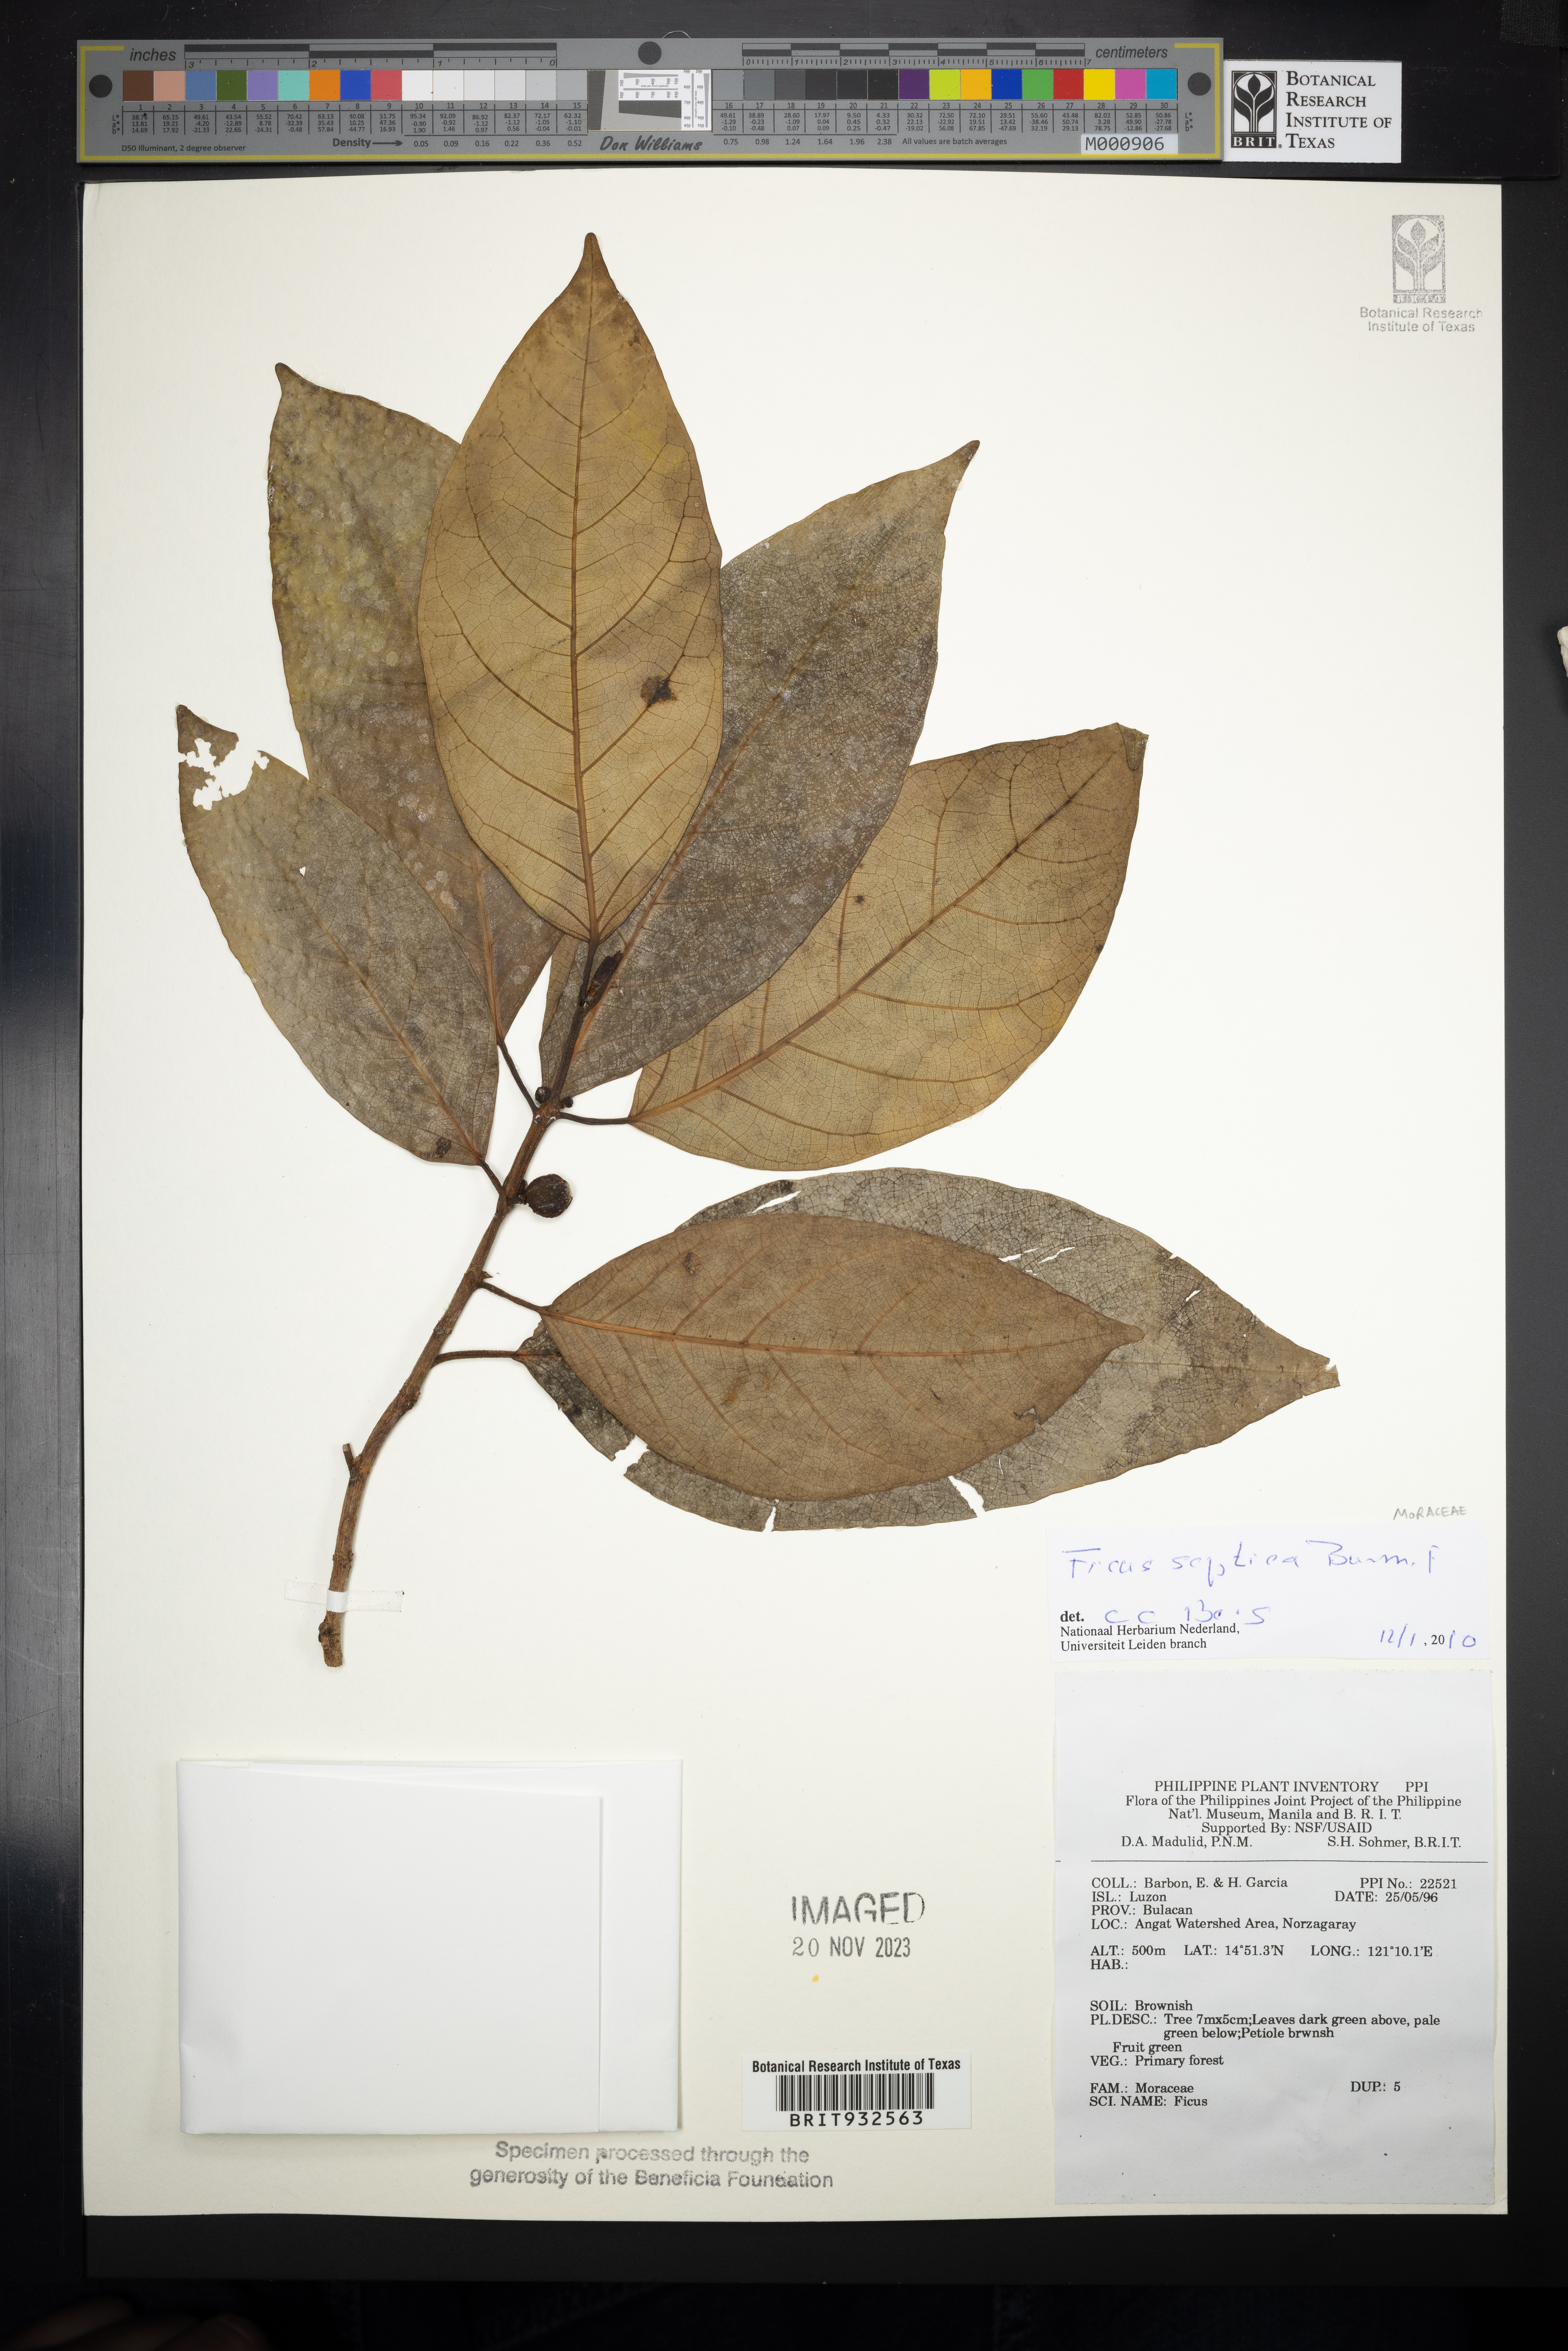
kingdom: Plantae
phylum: Tracheophyta
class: Magnoliopsida
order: Rosales
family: Moraceae
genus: Ficus
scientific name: Ficus septica
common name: Septic fig
